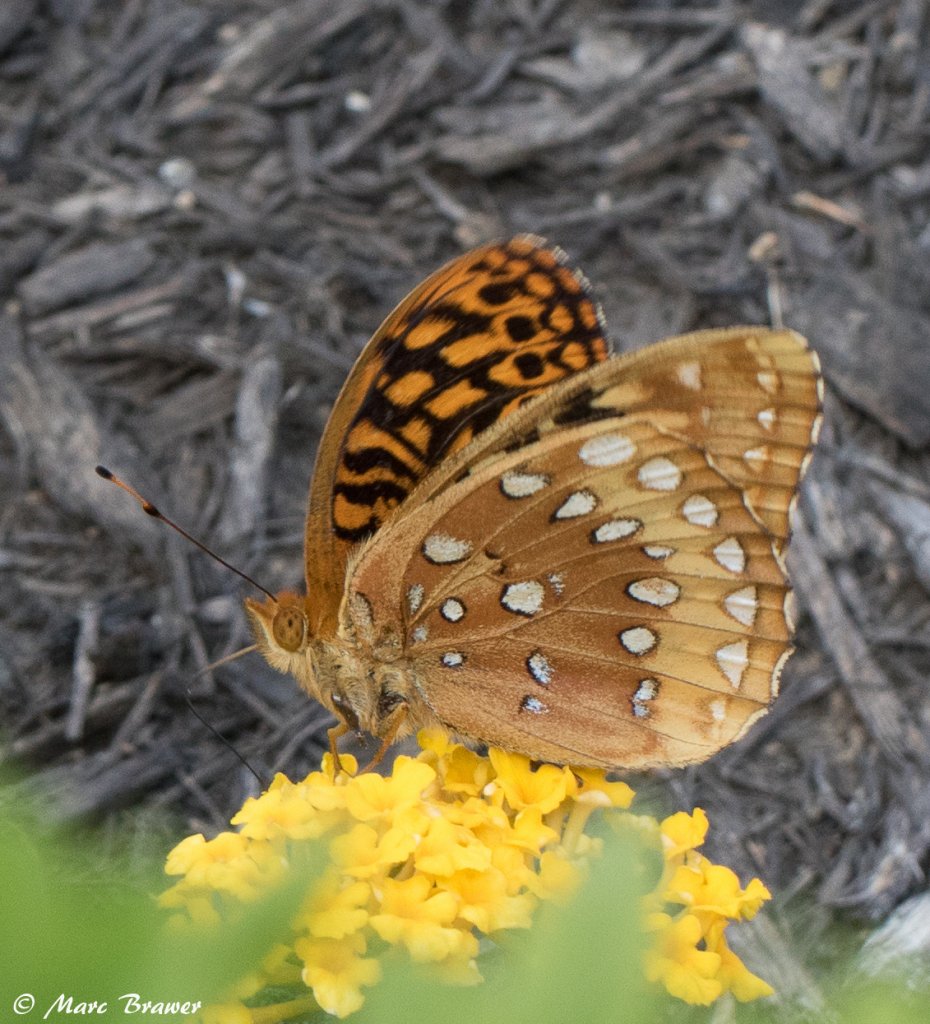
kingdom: Animalia
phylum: Arthropoda
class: Insecta
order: Lepidoptera
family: Nymphalidae
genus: Speyeria
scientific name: Speyeria cybele
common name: Great Spangled Fritillary
